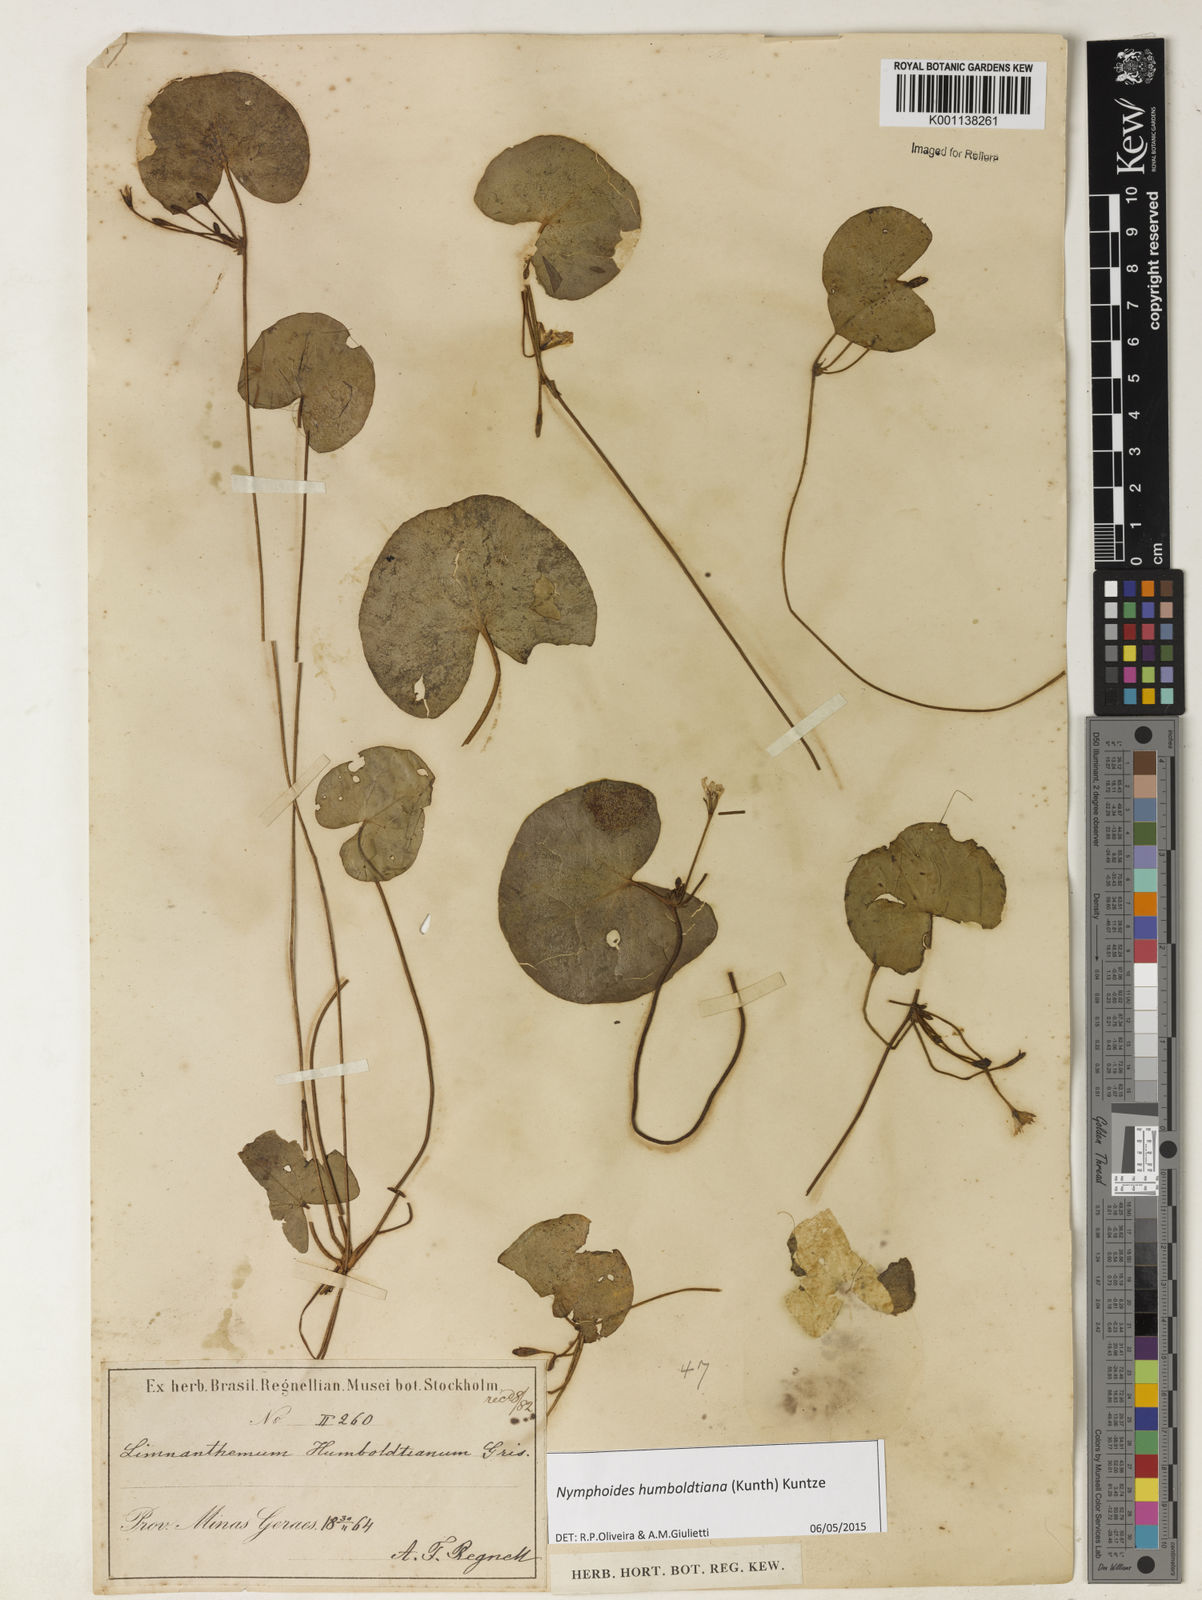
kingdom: Plantae
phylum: Tracheophyta
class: Magnoliopsida
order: Asterales
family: Menyanthaceae
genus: Nymphoides
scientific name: Nymphoides humboldtiana
